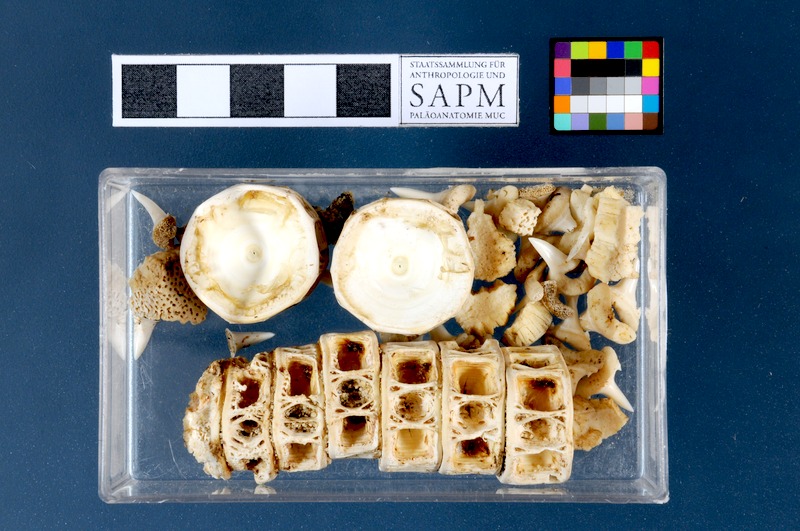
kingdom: Animalia
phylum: Chordata
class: Elasmobranchii
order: Lamniformes
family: Lamnidae
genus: Lamna
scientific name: Lamna nasus
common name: Porbeagle
